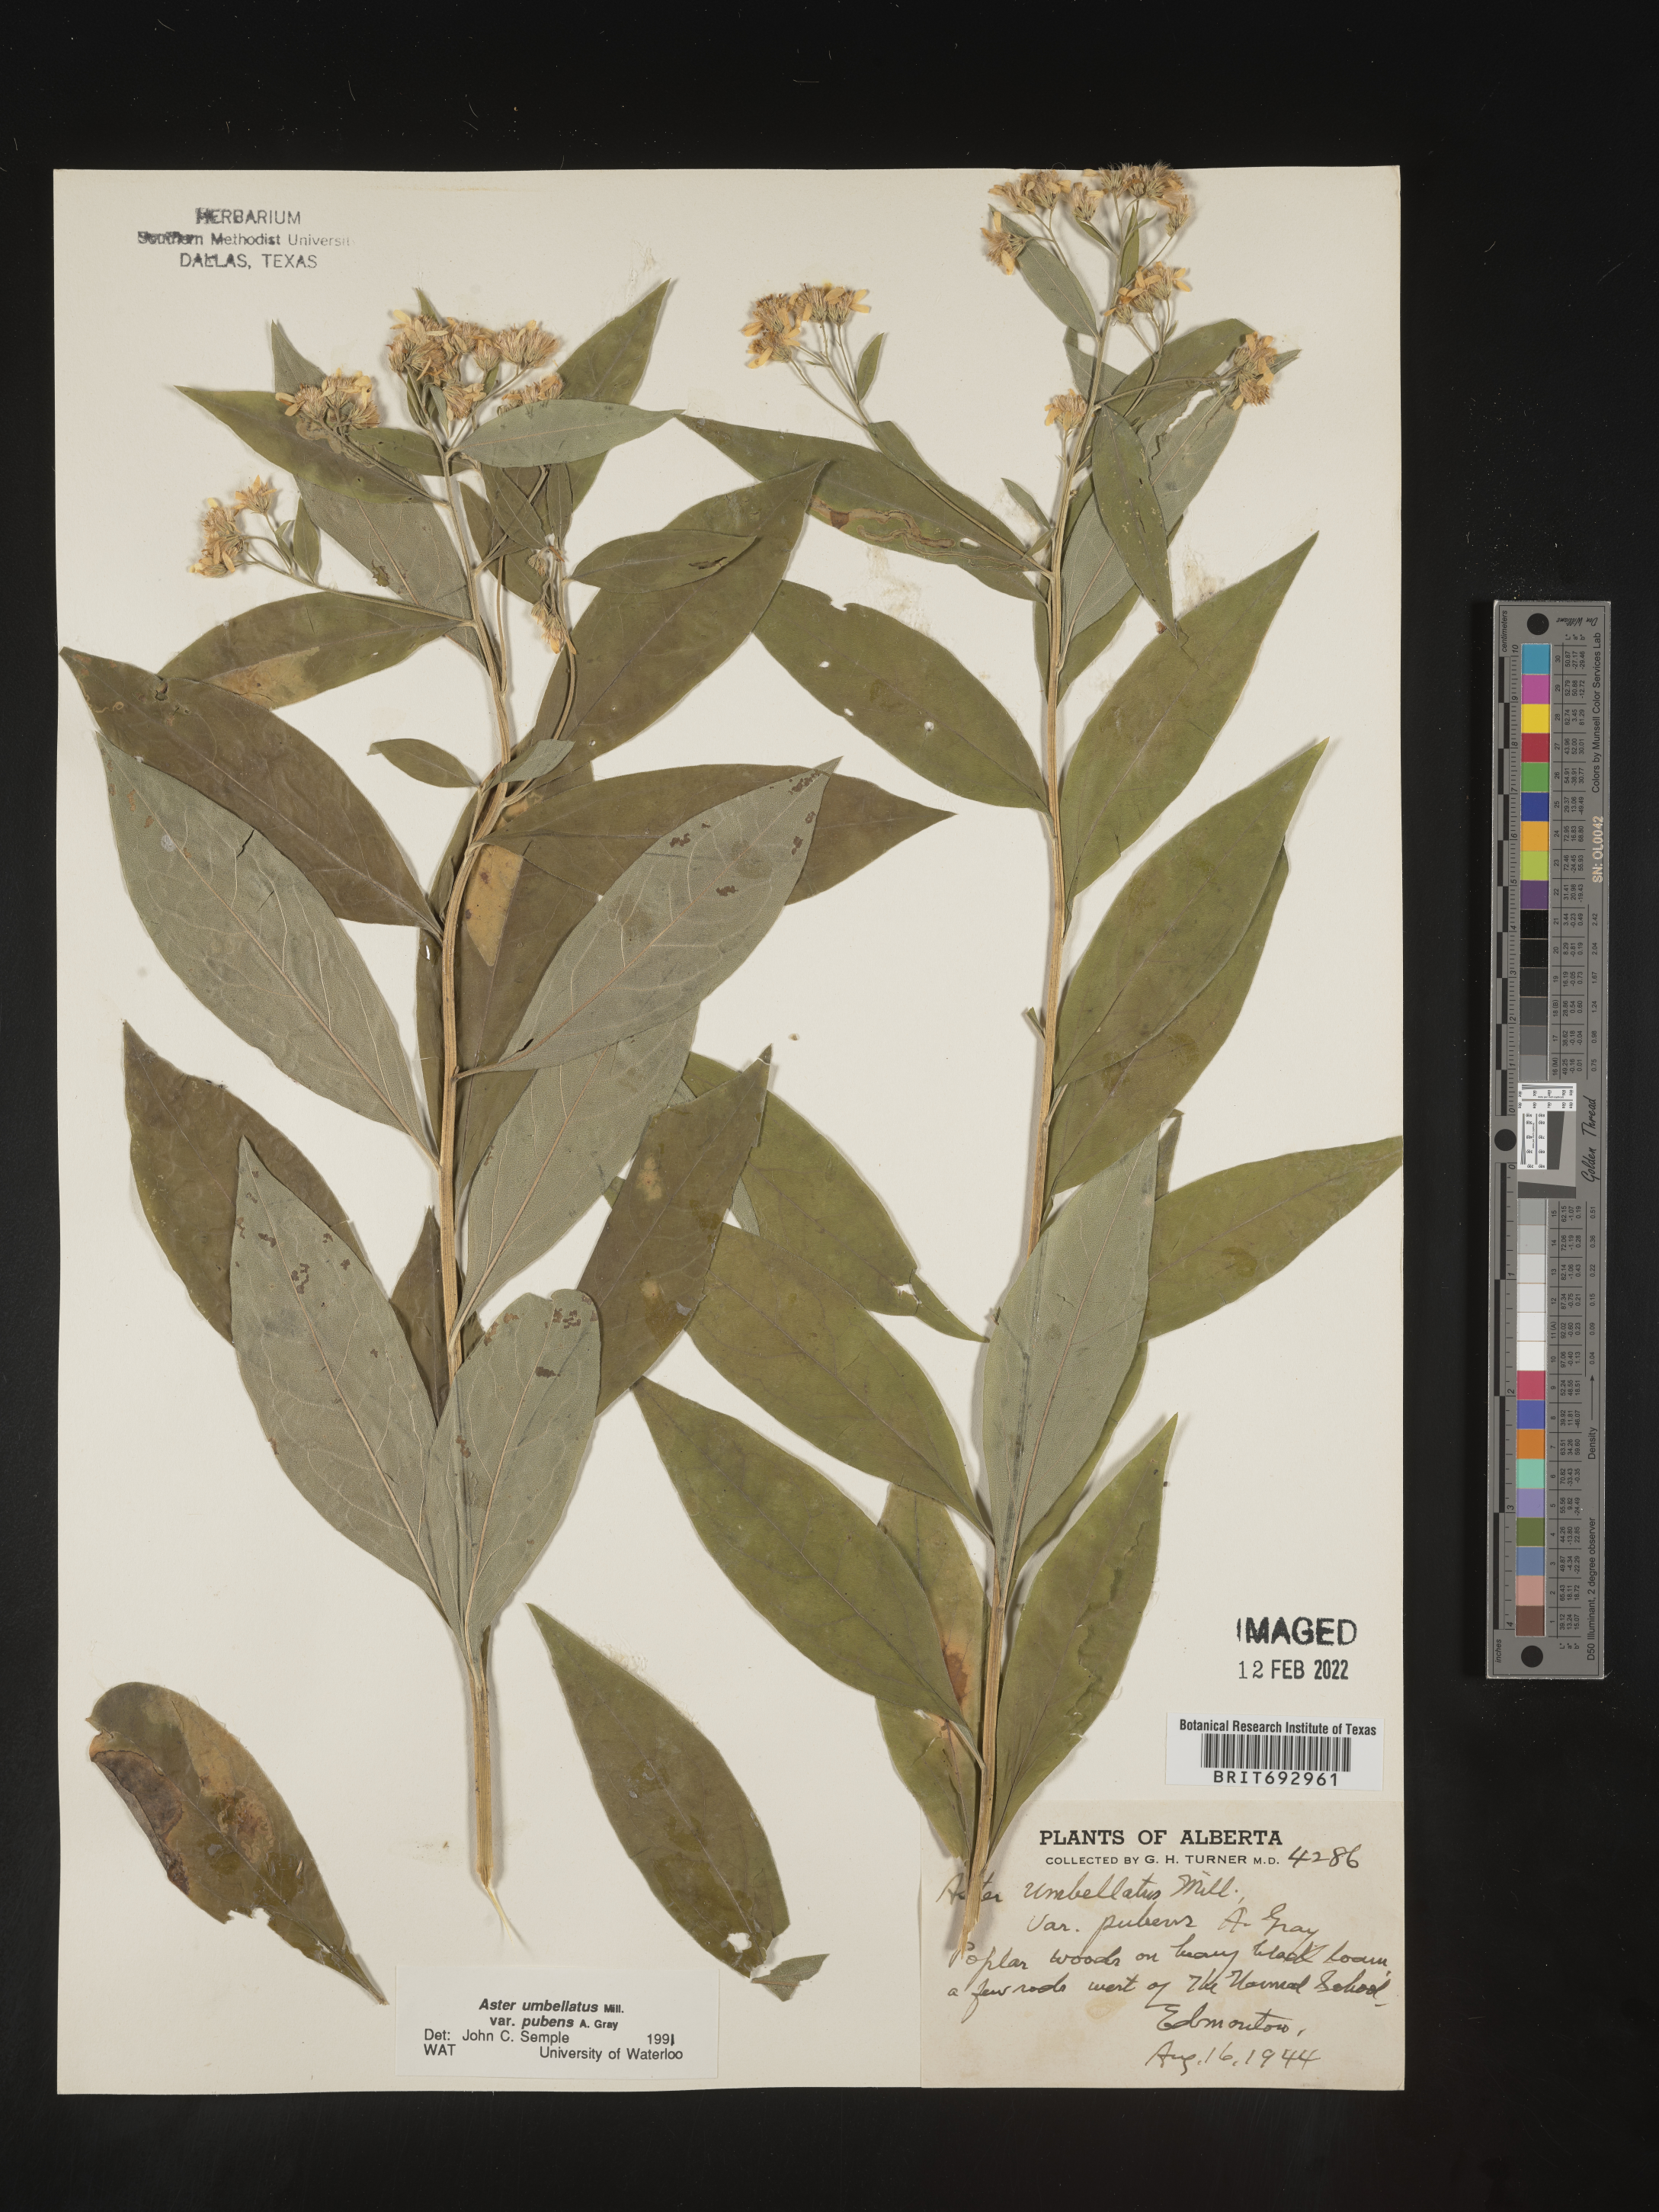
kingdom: Plantae
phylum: Tracheophyta
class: Magnoliopsida
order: Asterales
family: Asteraceae
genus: Doellingeria
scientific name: Doellingeria umbellata
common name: Flat-top white aster
